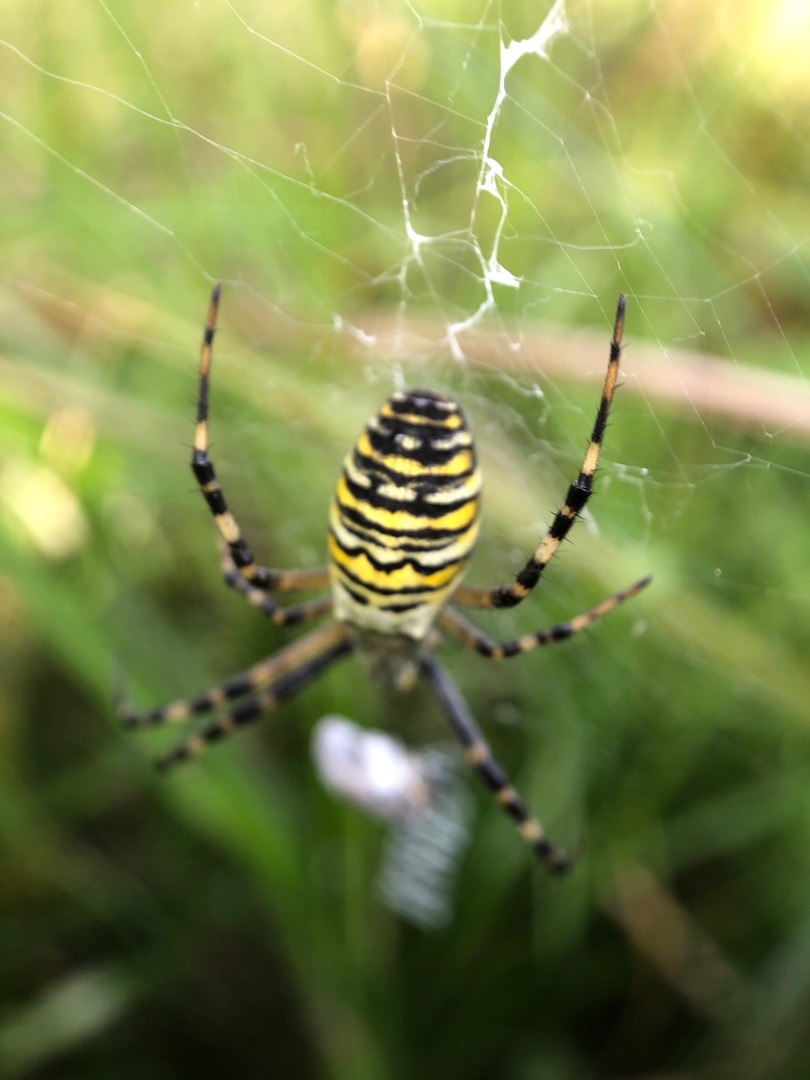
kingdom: Animalia
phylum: Arthropoda
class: Arachnida
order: Araneae
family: Araneidae
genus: Argiope
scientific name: Argiope bruennichi
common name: Hvepseedderkop
